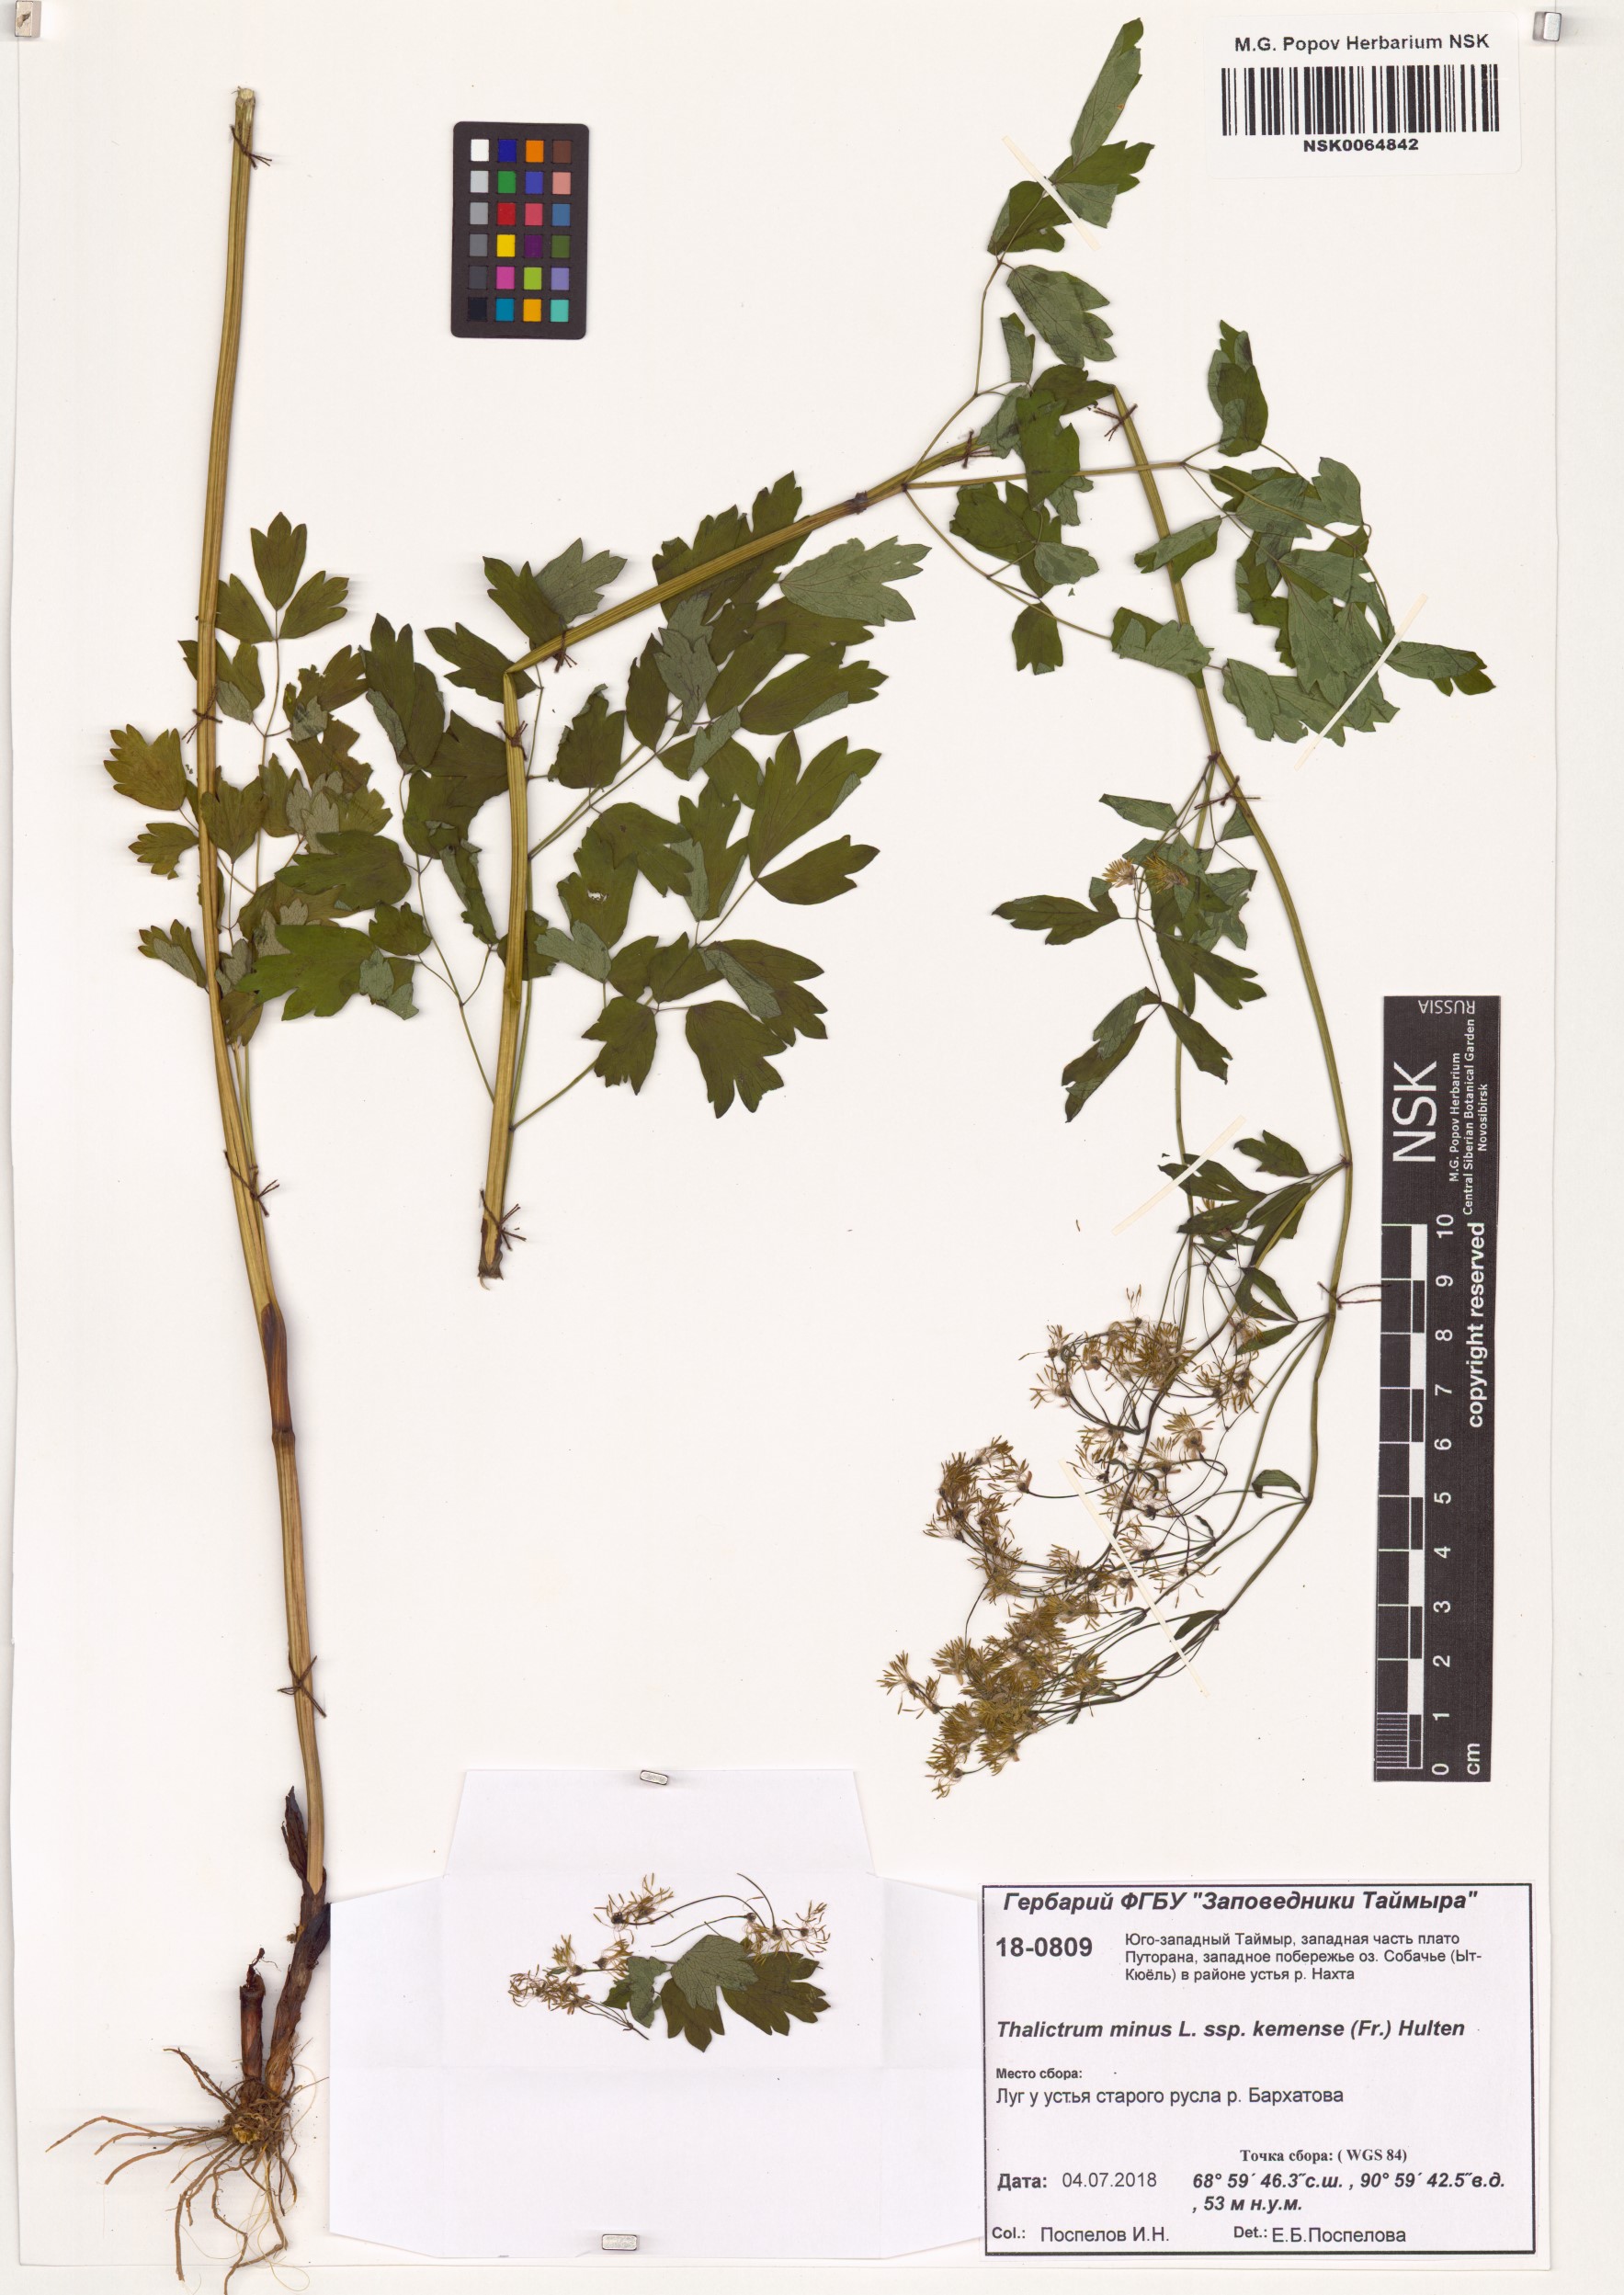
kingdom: Plantae
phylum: Tracheophyta
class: Magnoliopsida
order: Ranunculales
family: Ranunculaceae
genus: Thalictrum
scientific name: Thalictrum minus
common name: Lesser meadow-rue
